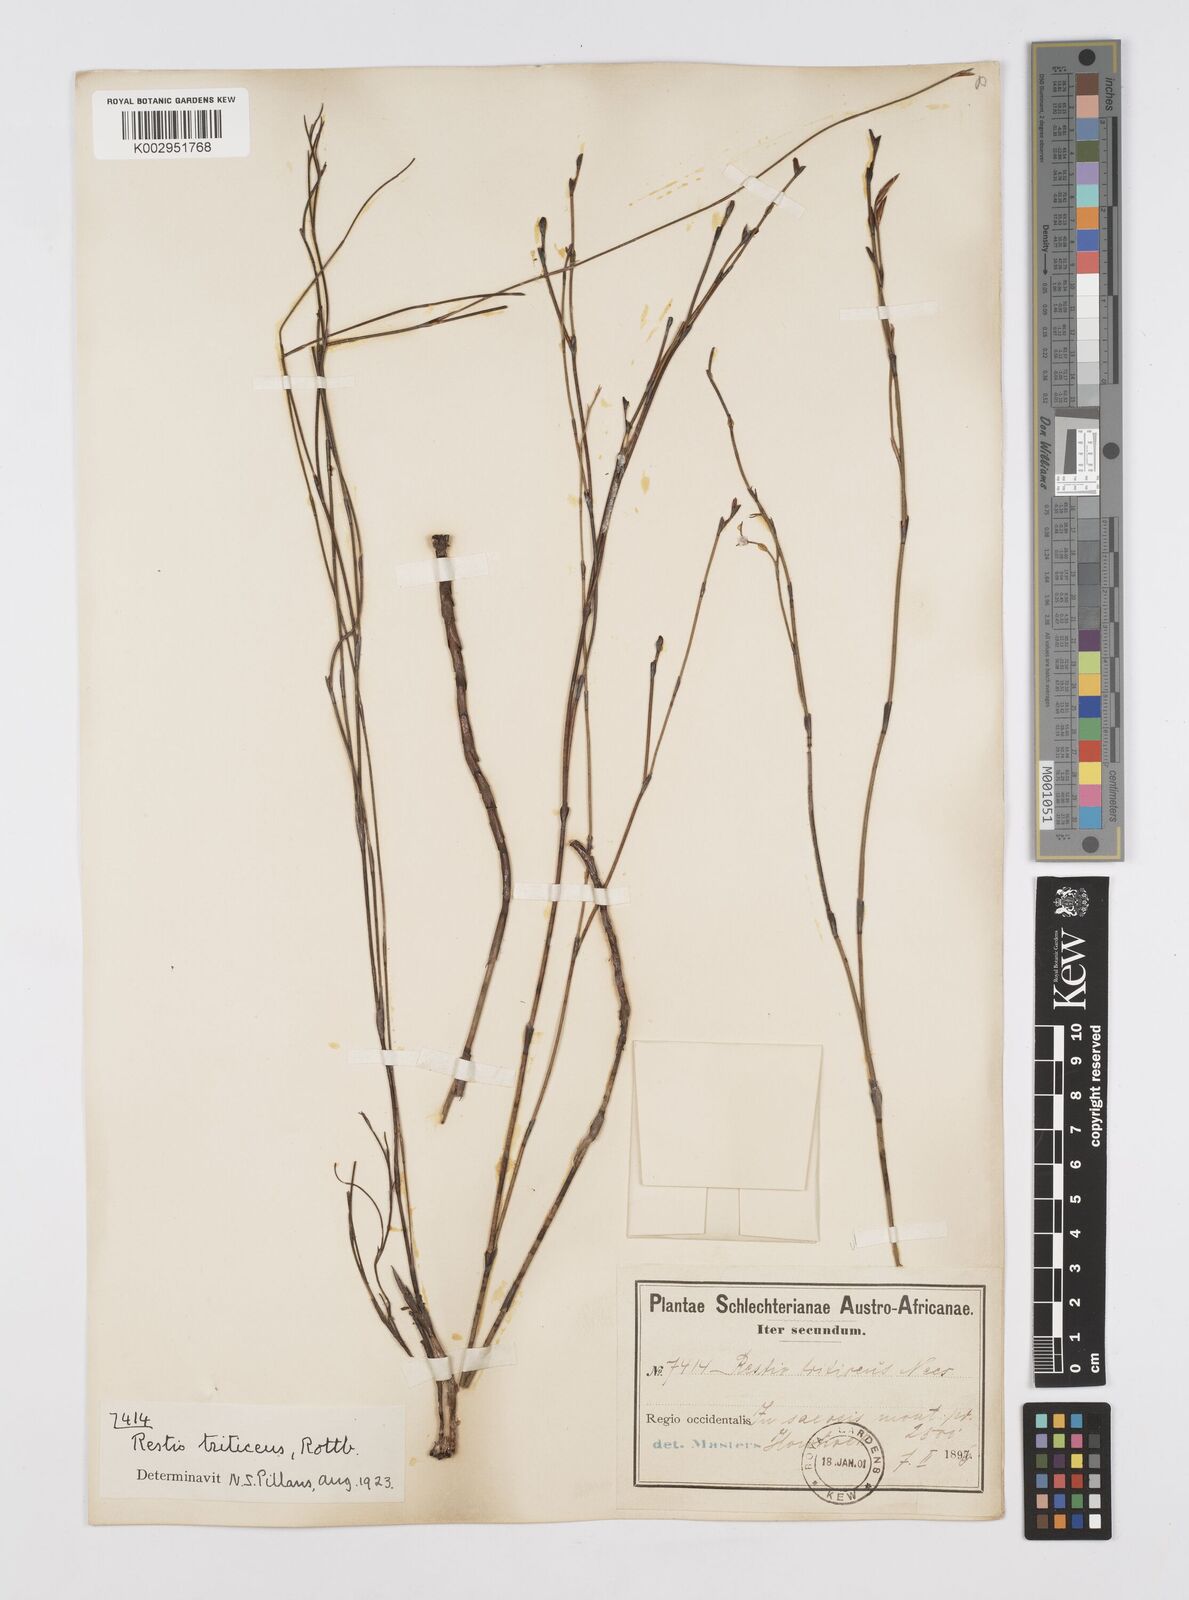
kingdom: Plantae
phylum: Tracheophyta
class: Liliopsida
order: Poales
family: Restionaceae
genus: Restio
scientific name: Restio triticeus
